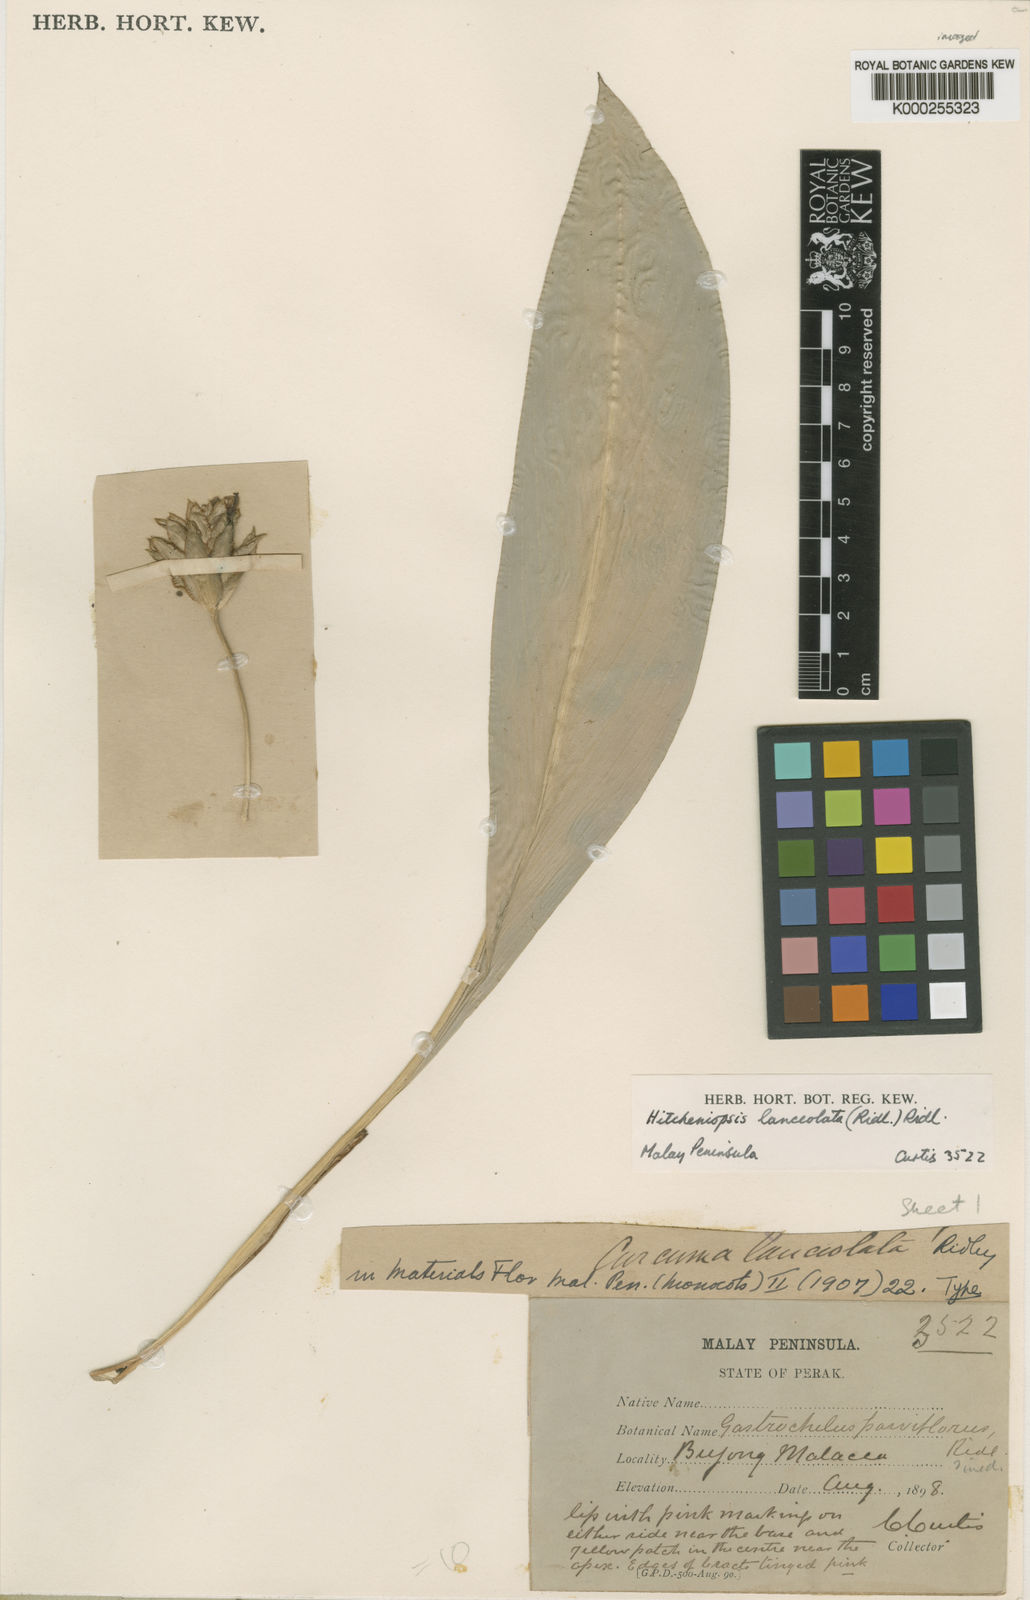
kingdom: Plantae
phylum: Tracheophyta
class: Liliopsida
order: Zingiberales
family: Zingiberaceae
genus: Scaphochlamys
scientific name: Scaphochlamys perakensis
